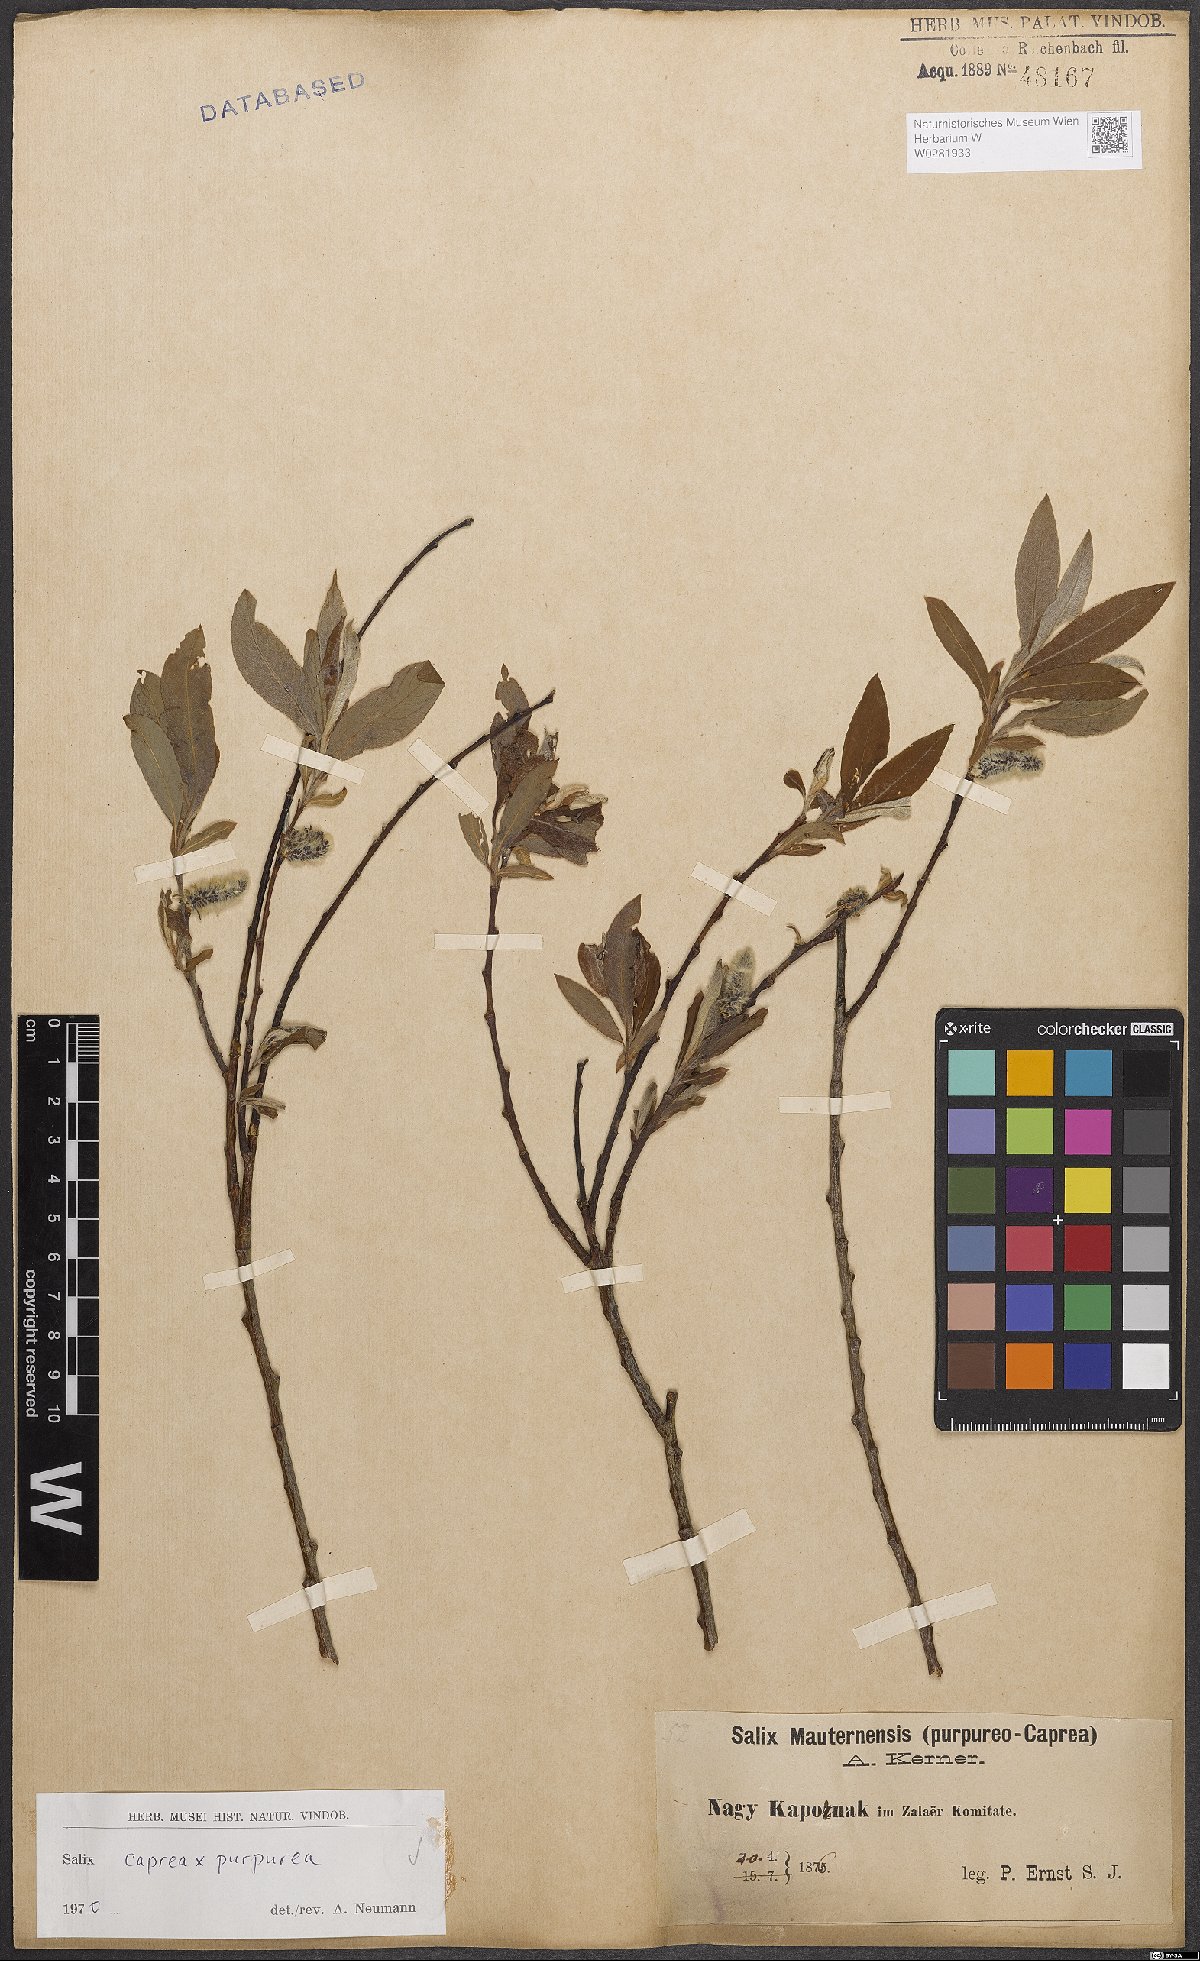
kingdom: Plantae
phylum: Tracheophyta
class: Magnoliopsida
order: Malpighiales
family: Salicaceae
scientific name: Salicaceae
